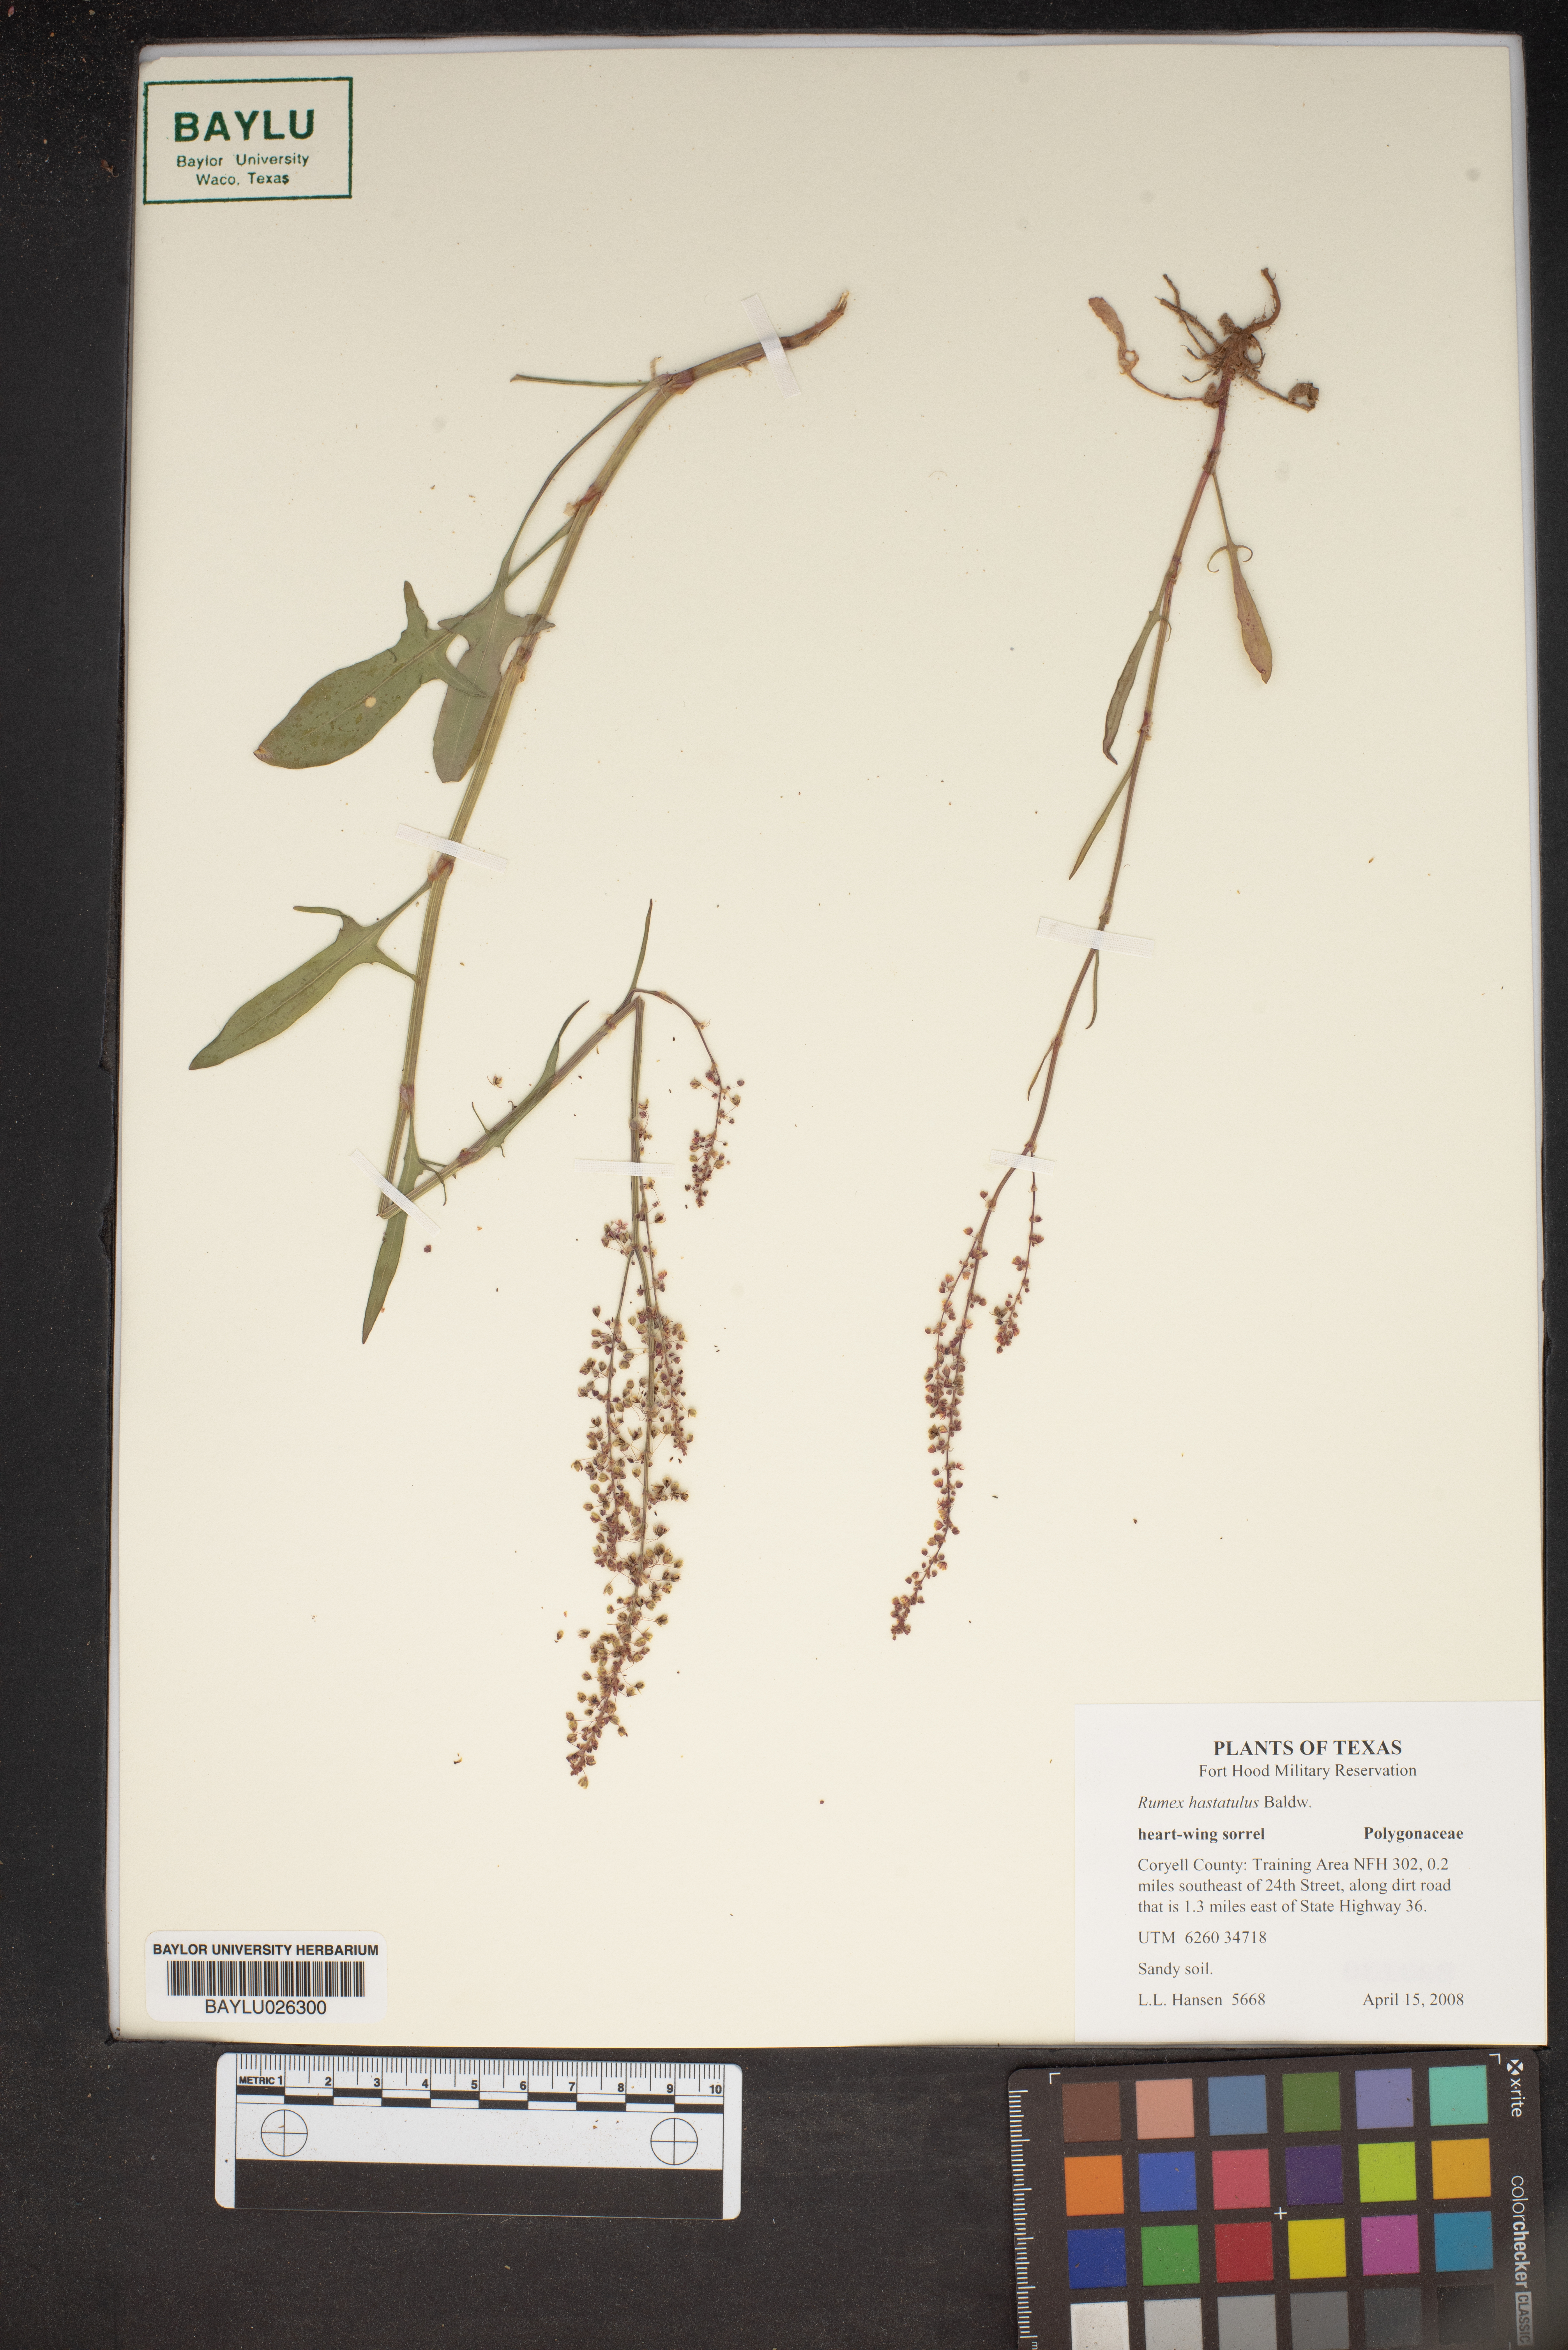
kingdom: Plantae
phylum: Tracheophyta
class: Magnoliopsida
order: Caryophyllales
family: Polygonaceae
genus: Rumex
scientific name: Rumex hastatulus
